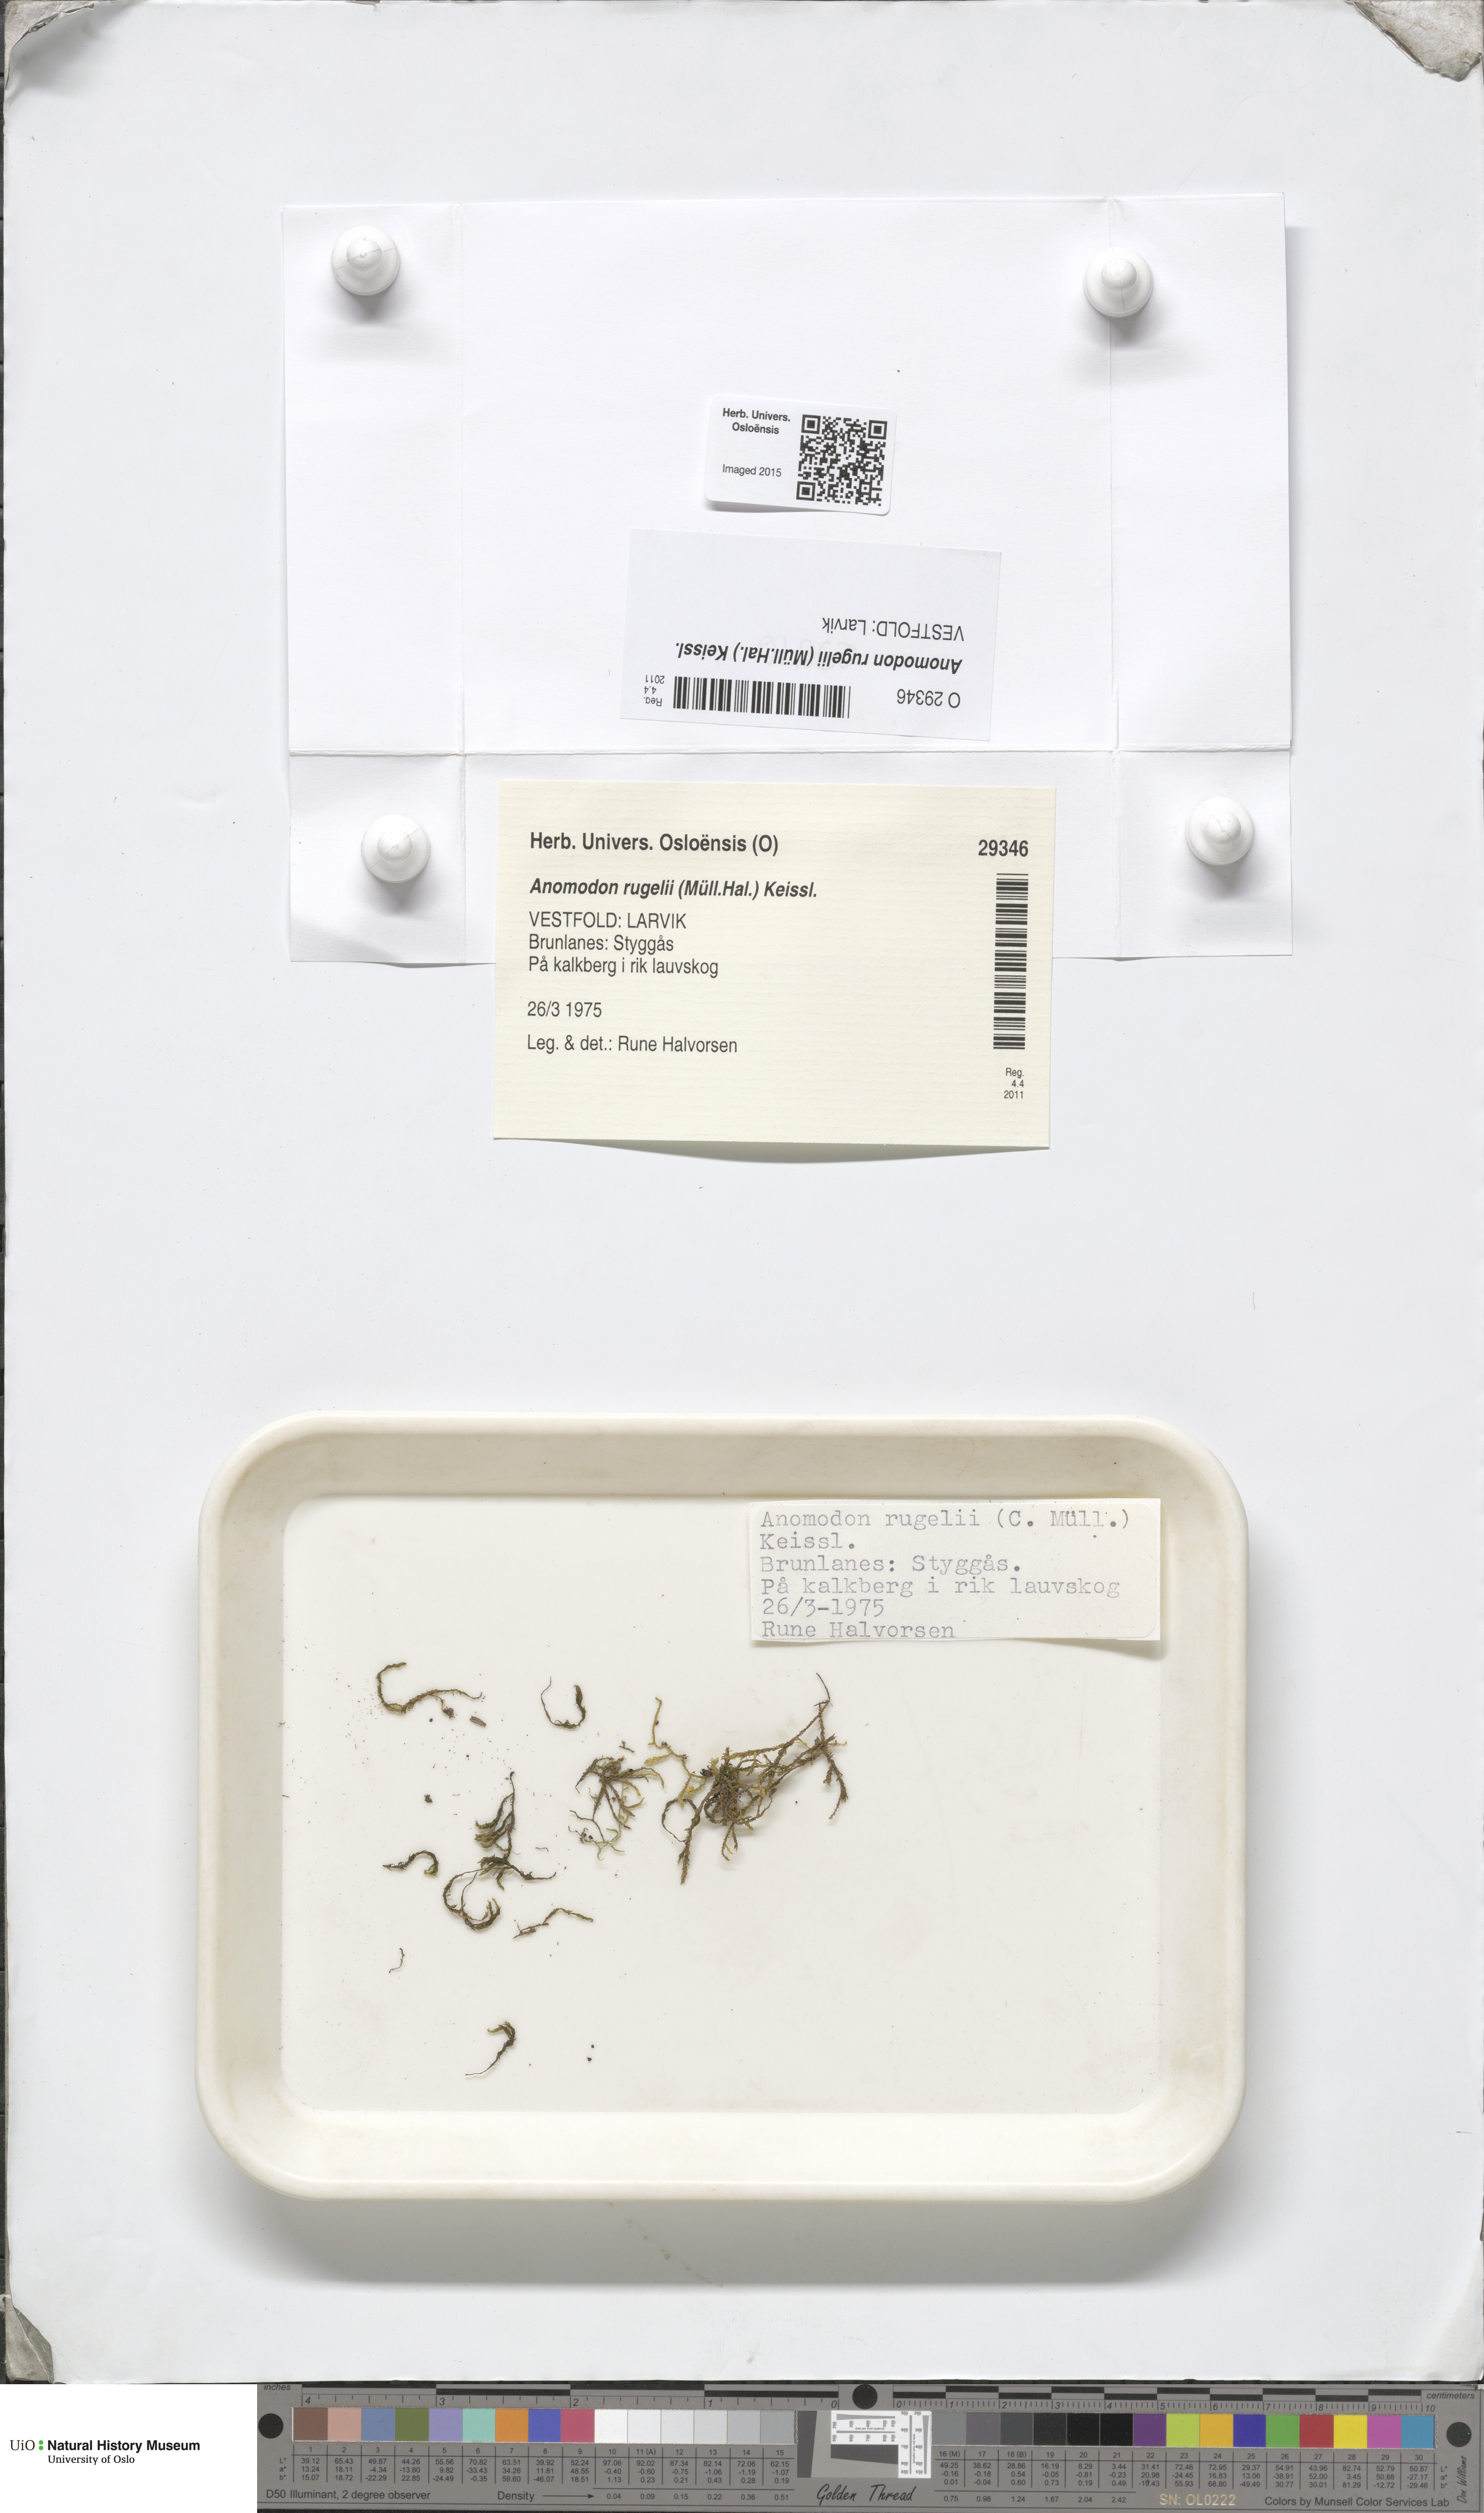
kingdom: Plantae
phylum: Bryophyta
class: Bryopsida
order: Hypnales
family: Anomodontaceae
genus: Anomodontopsis
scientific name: Anomodontopsis rugelii
